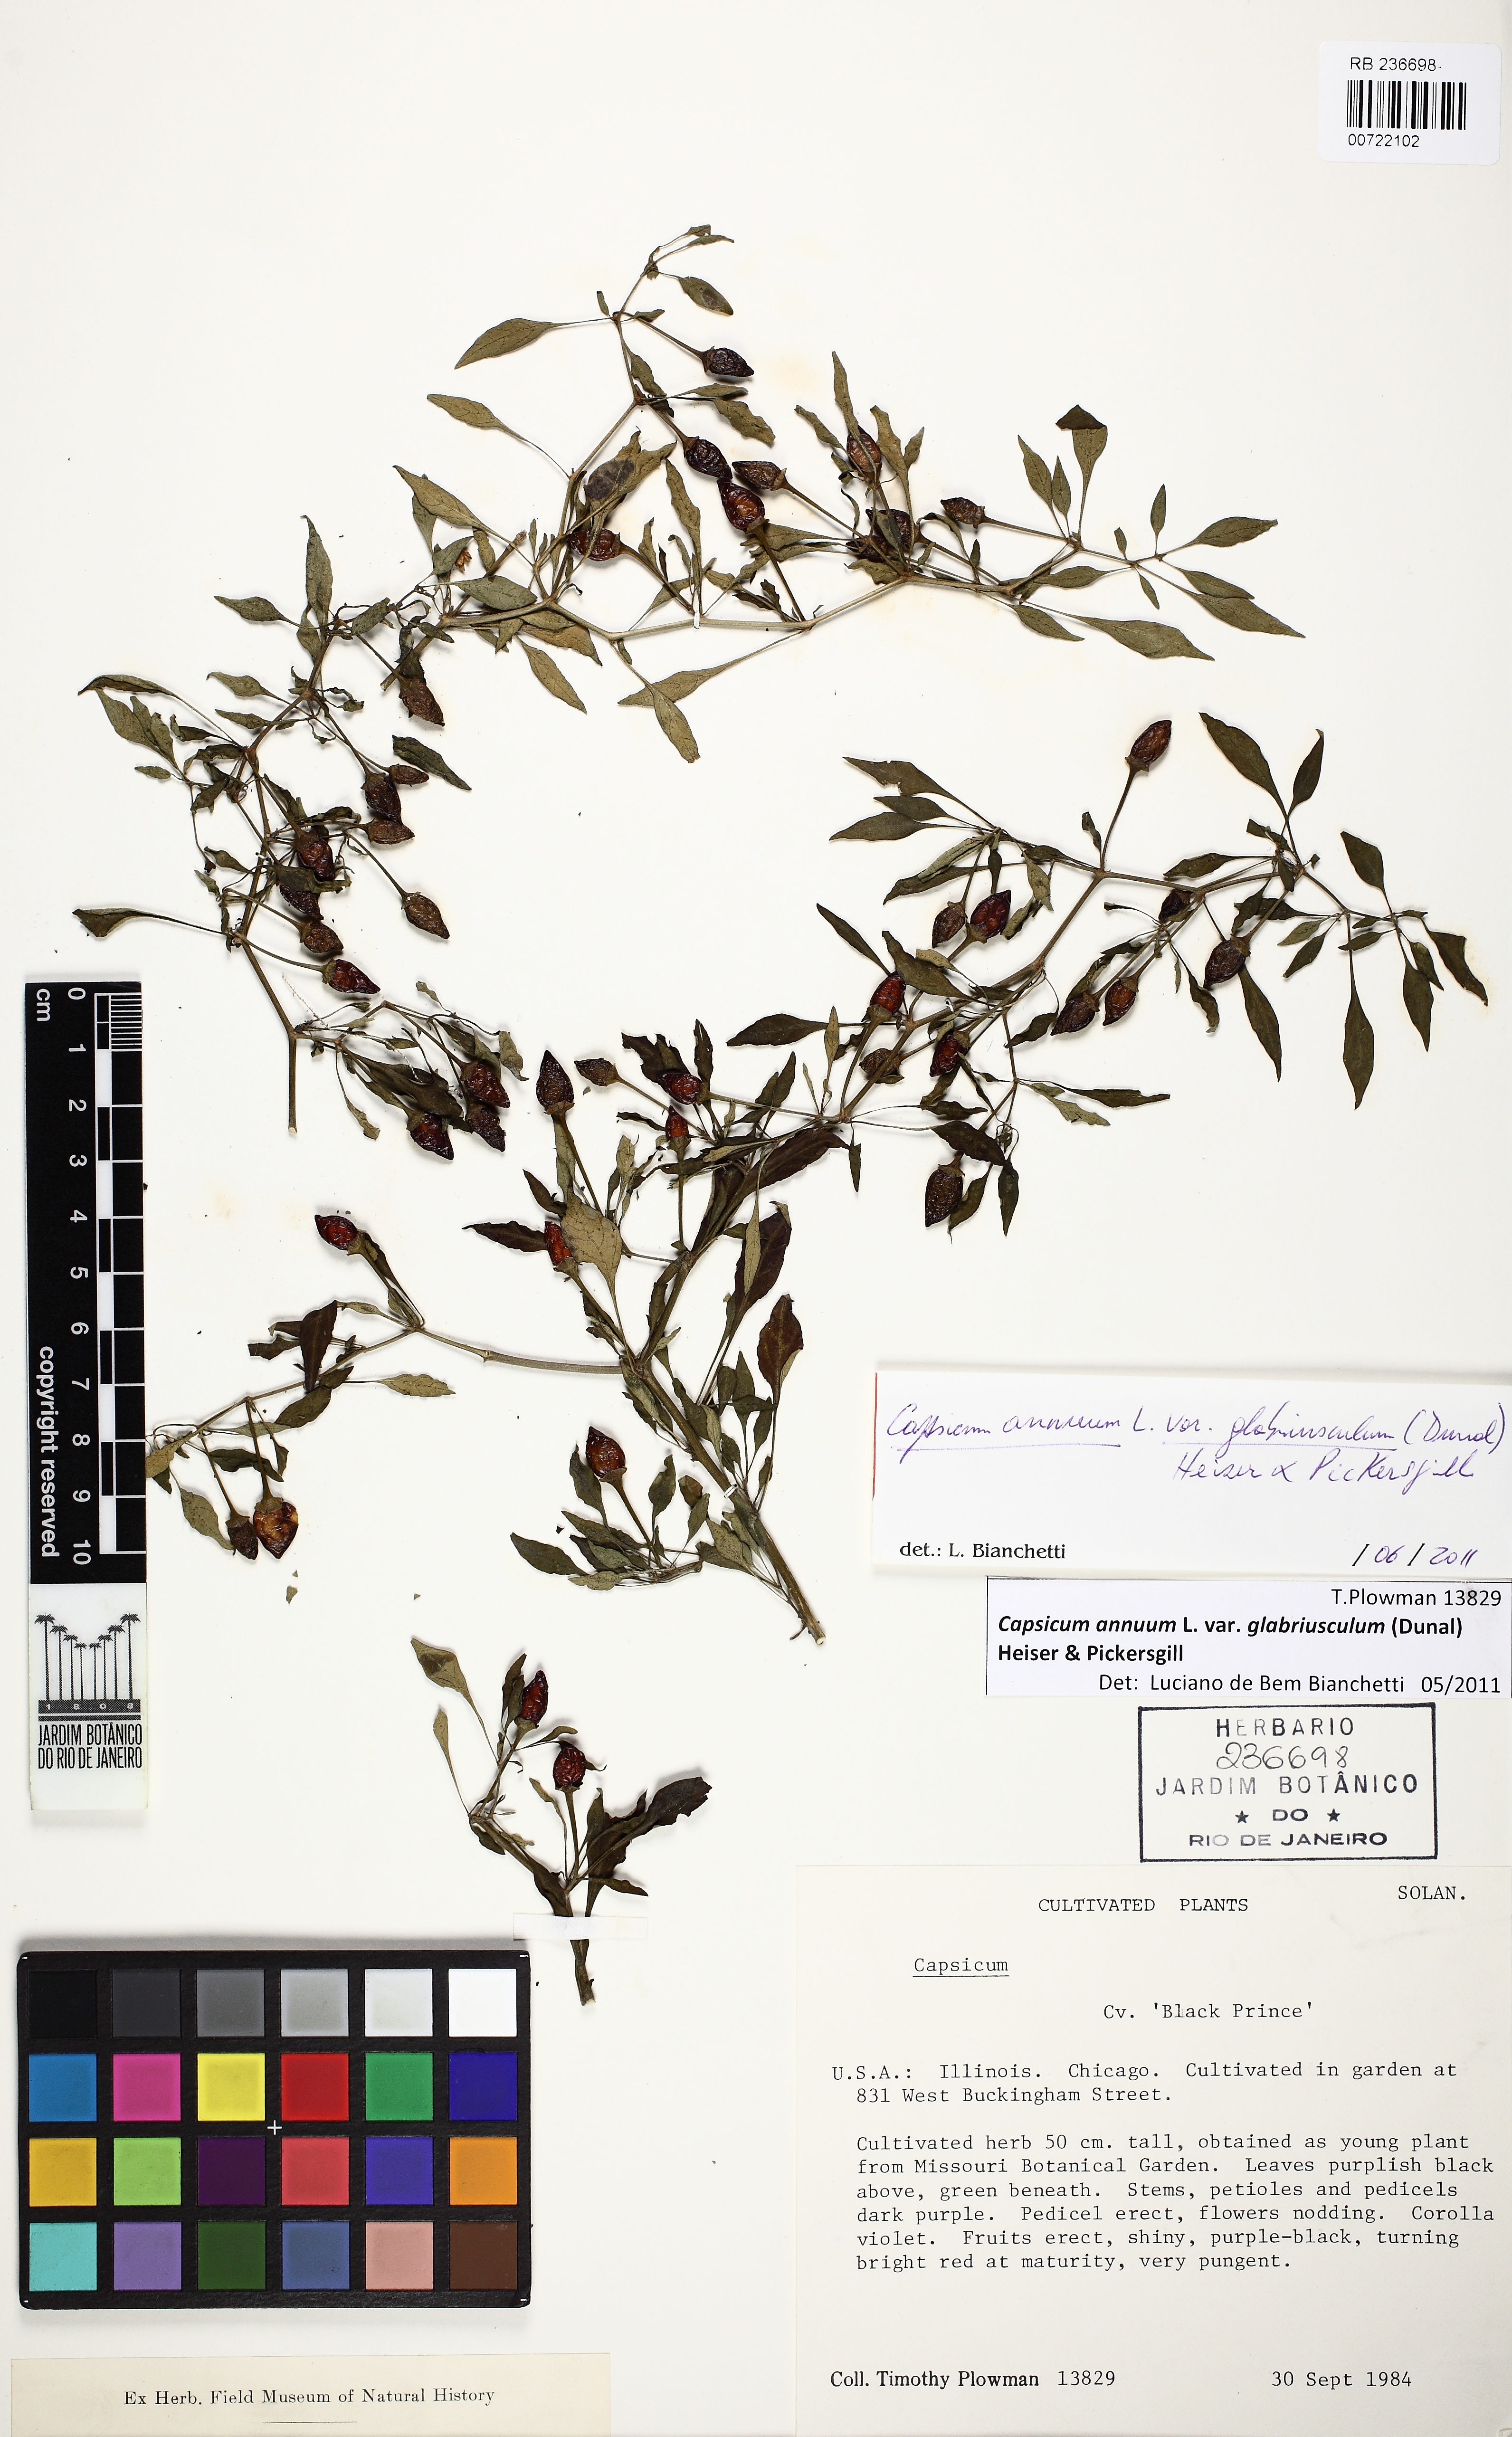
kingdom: Plantae
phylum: Tracheophyta
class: Magnoliopsida
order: Solanales
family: Solanaceae
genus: Capsicum
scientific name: Capsicum annuum
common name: Sweet pepper
